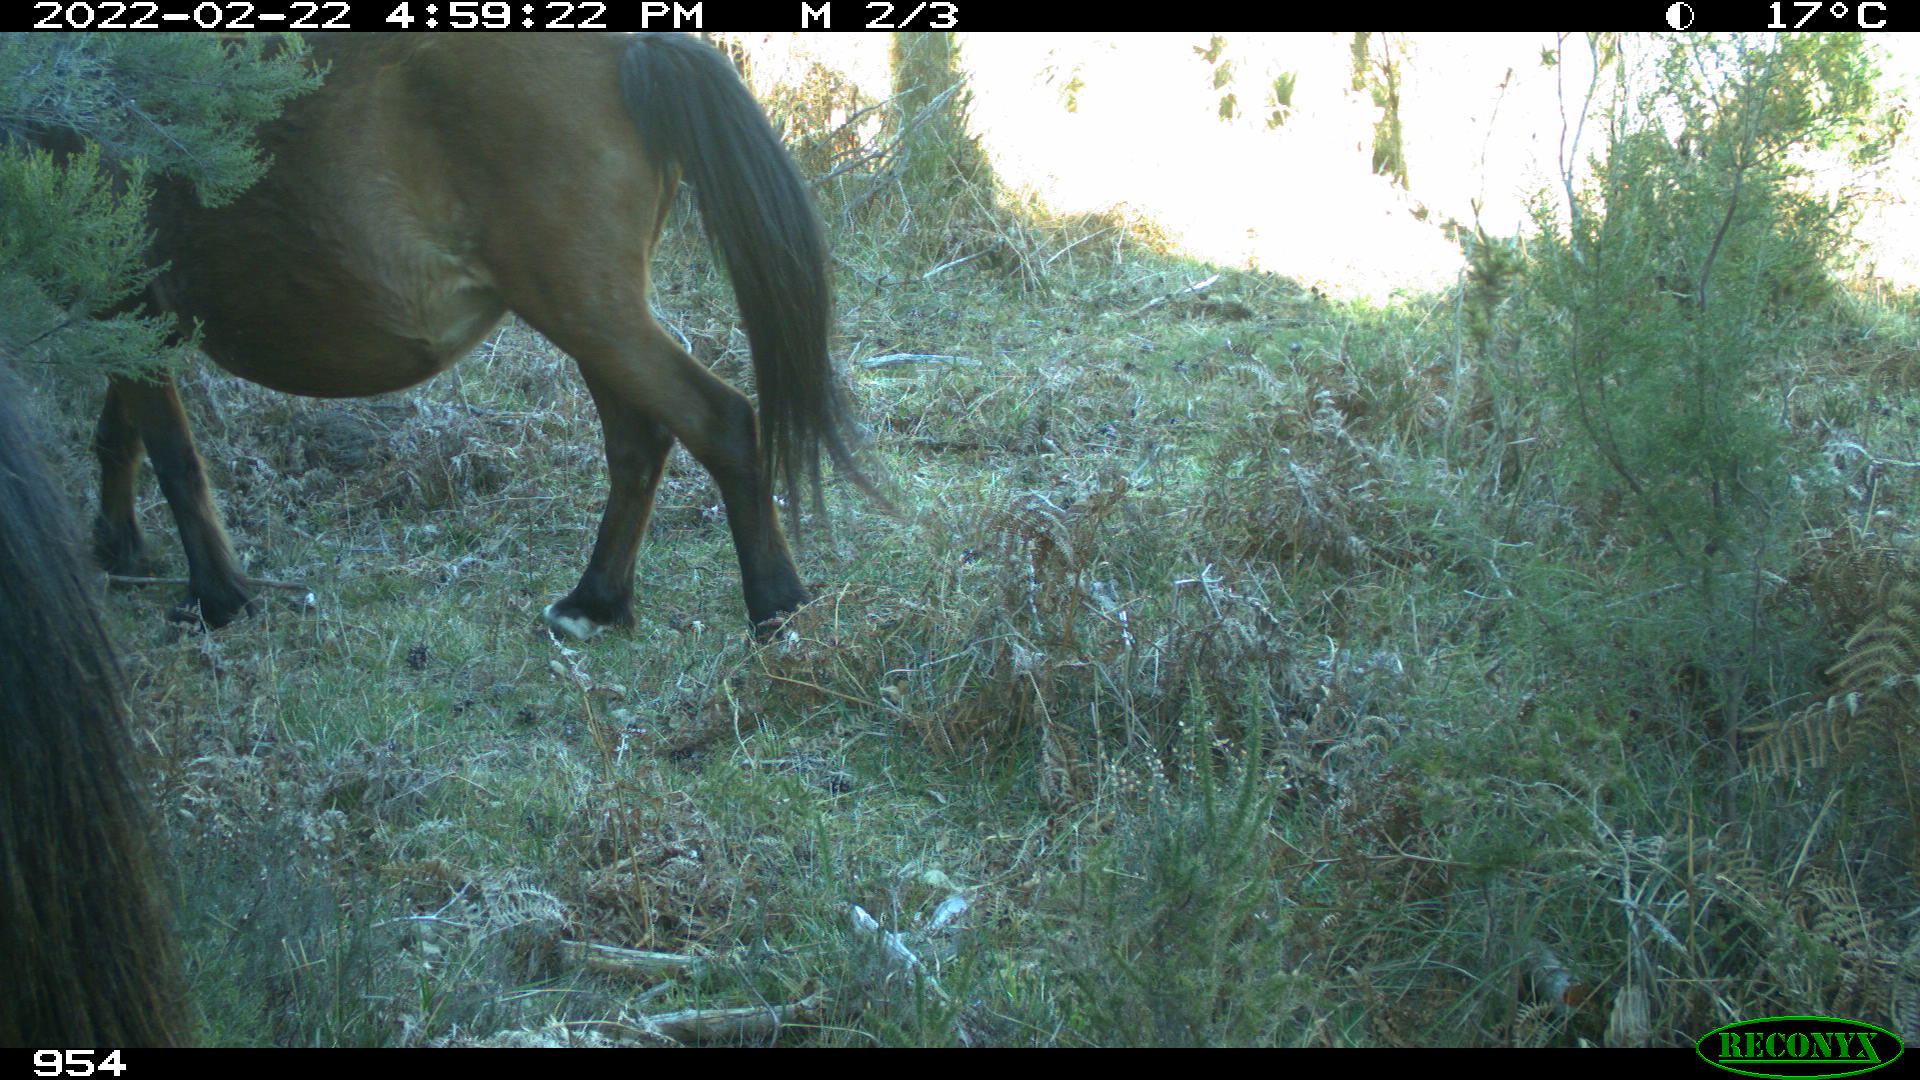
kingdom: Animalia
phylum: Chordata
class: Mammalia
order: Perissodactyla
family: Equidae
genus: Equus
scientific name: Equus caballus
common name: Horse
